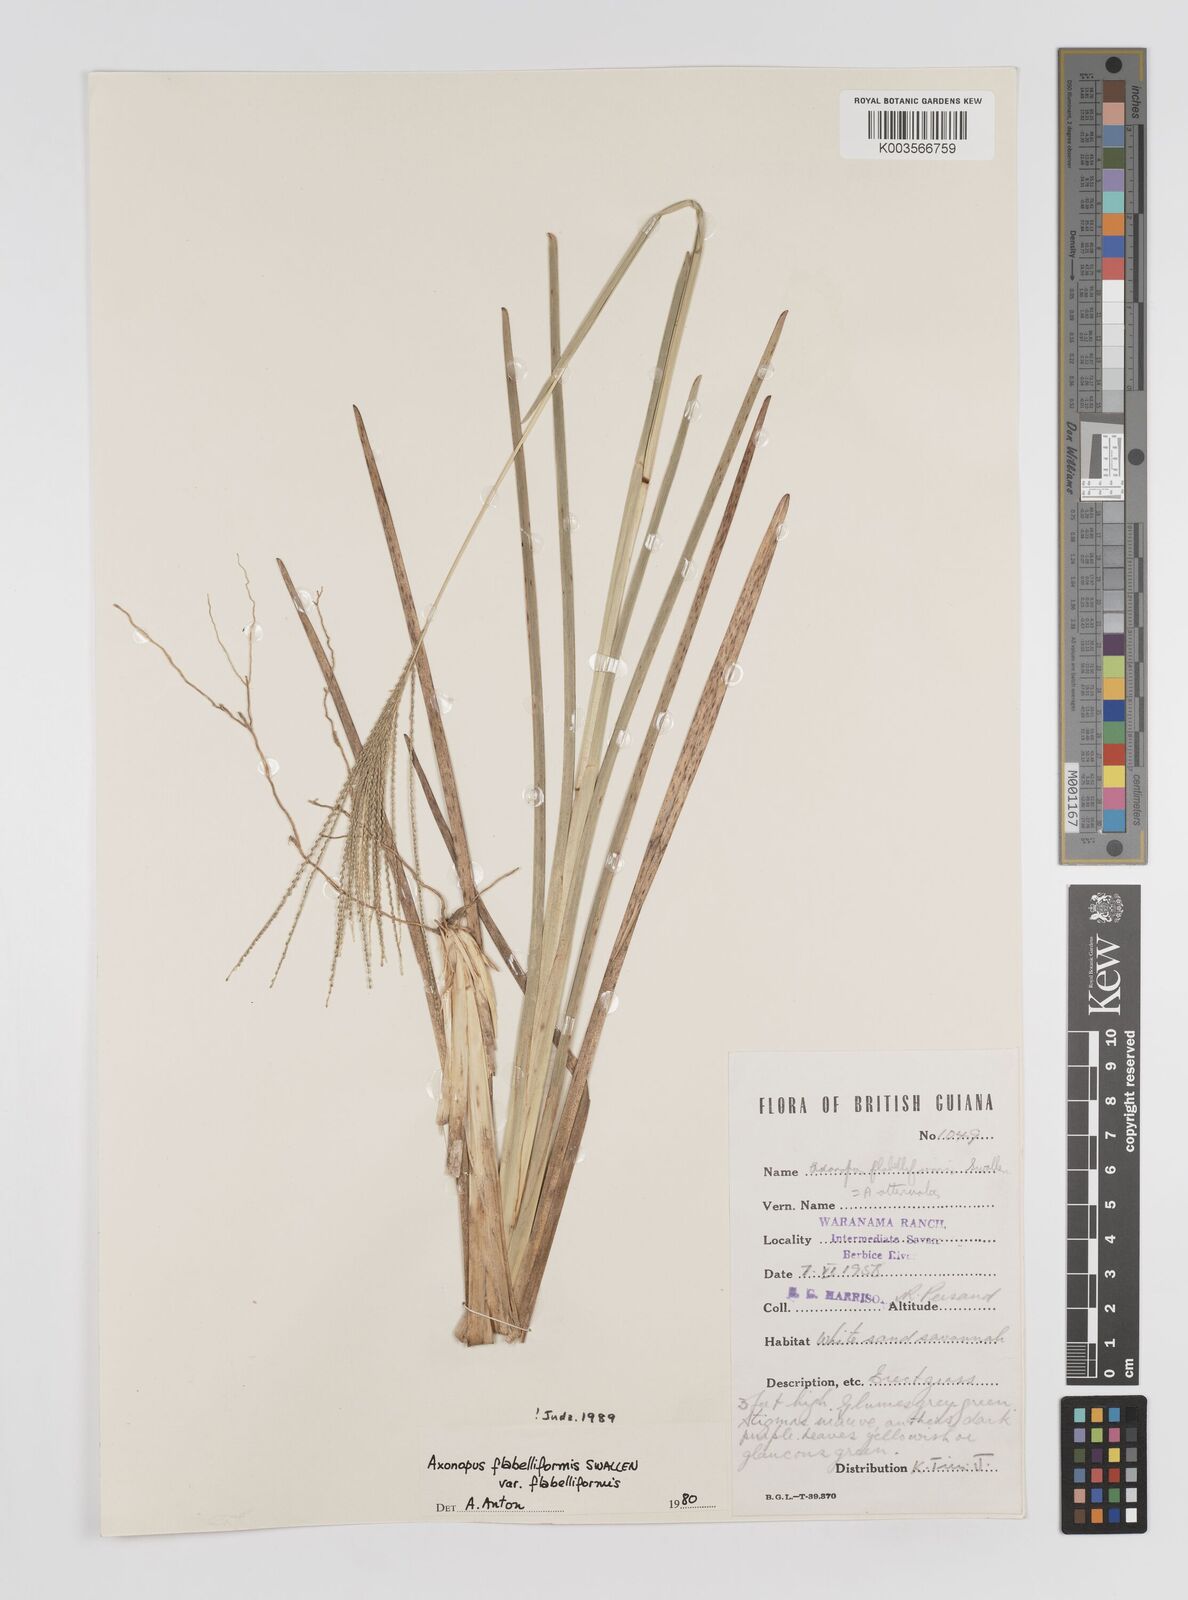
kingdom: Plantae
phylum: Tracheophyta
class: Liliopsida
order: Poales
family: Poaceae
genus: Axonopus
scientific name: Axonopus flabelliformis
